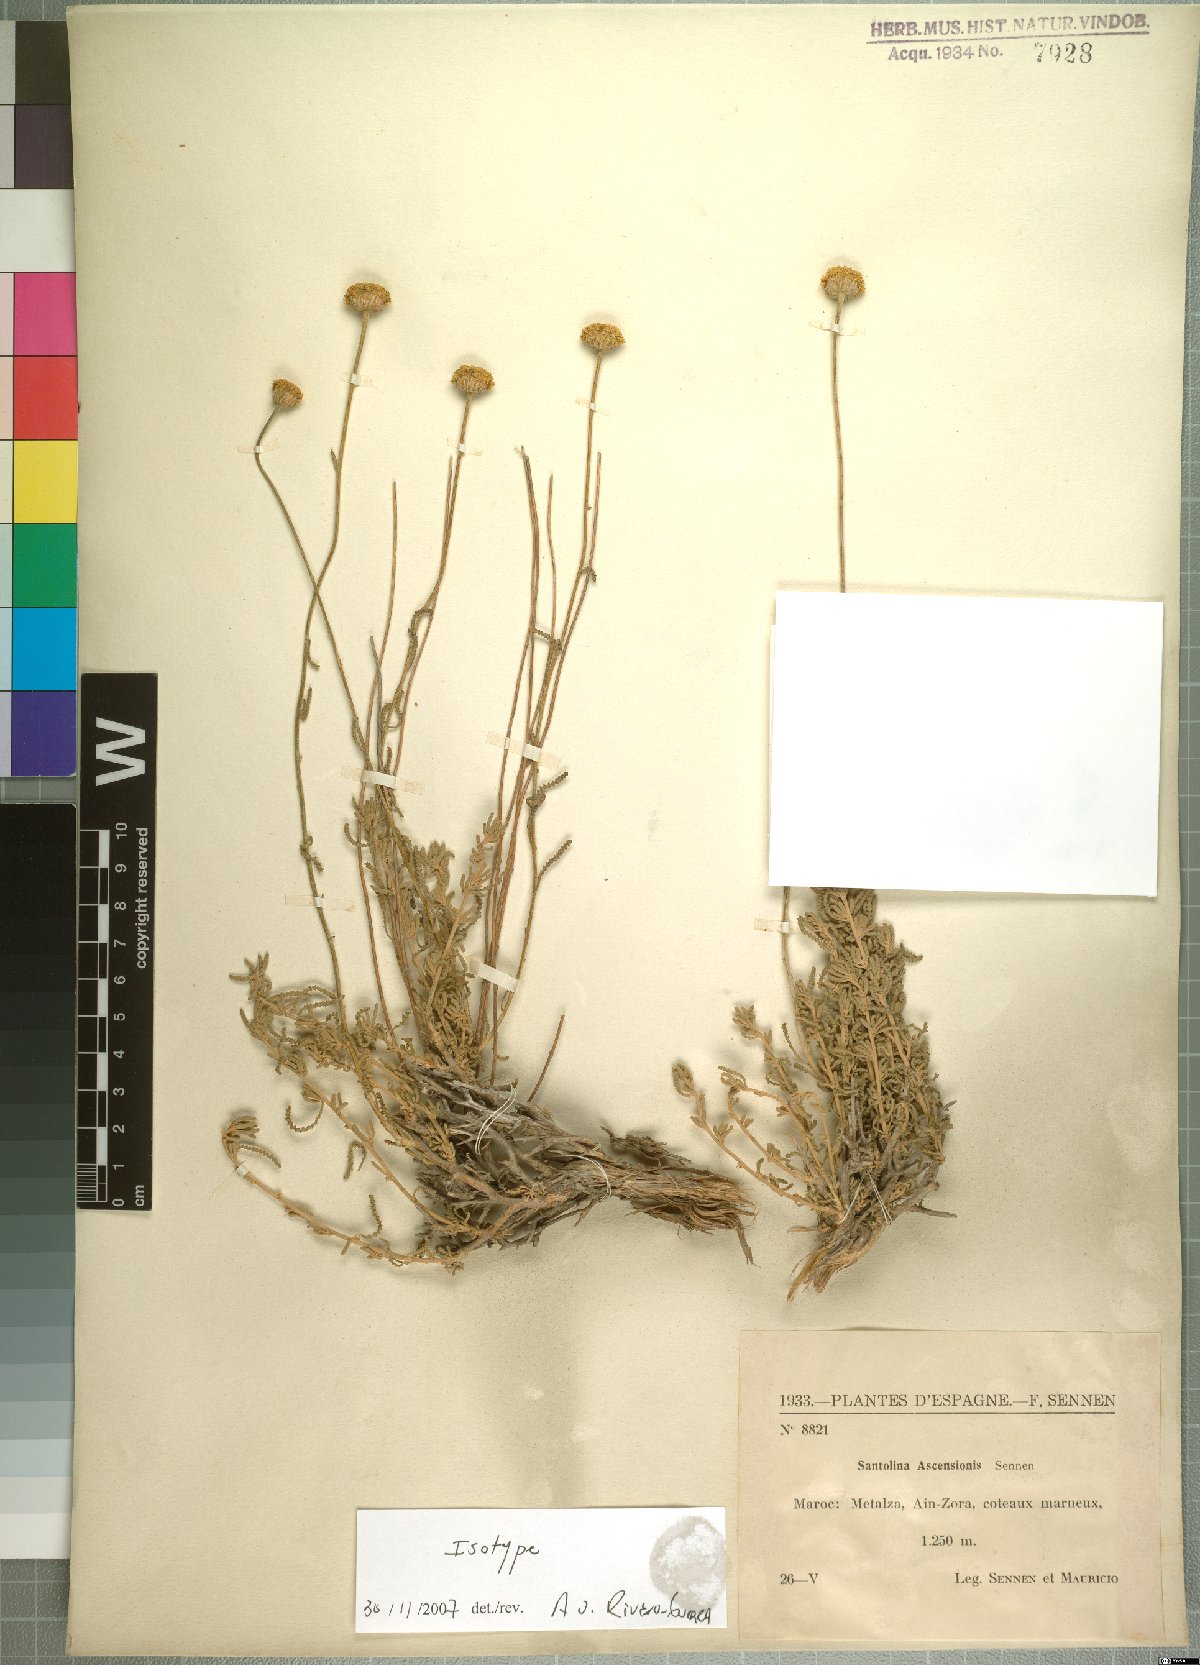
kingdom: Plantae
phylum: Tracheophyta
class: Magnoliopsida
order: Asterales
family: Asteraceae
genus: Santolina
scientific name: Santolina africana
